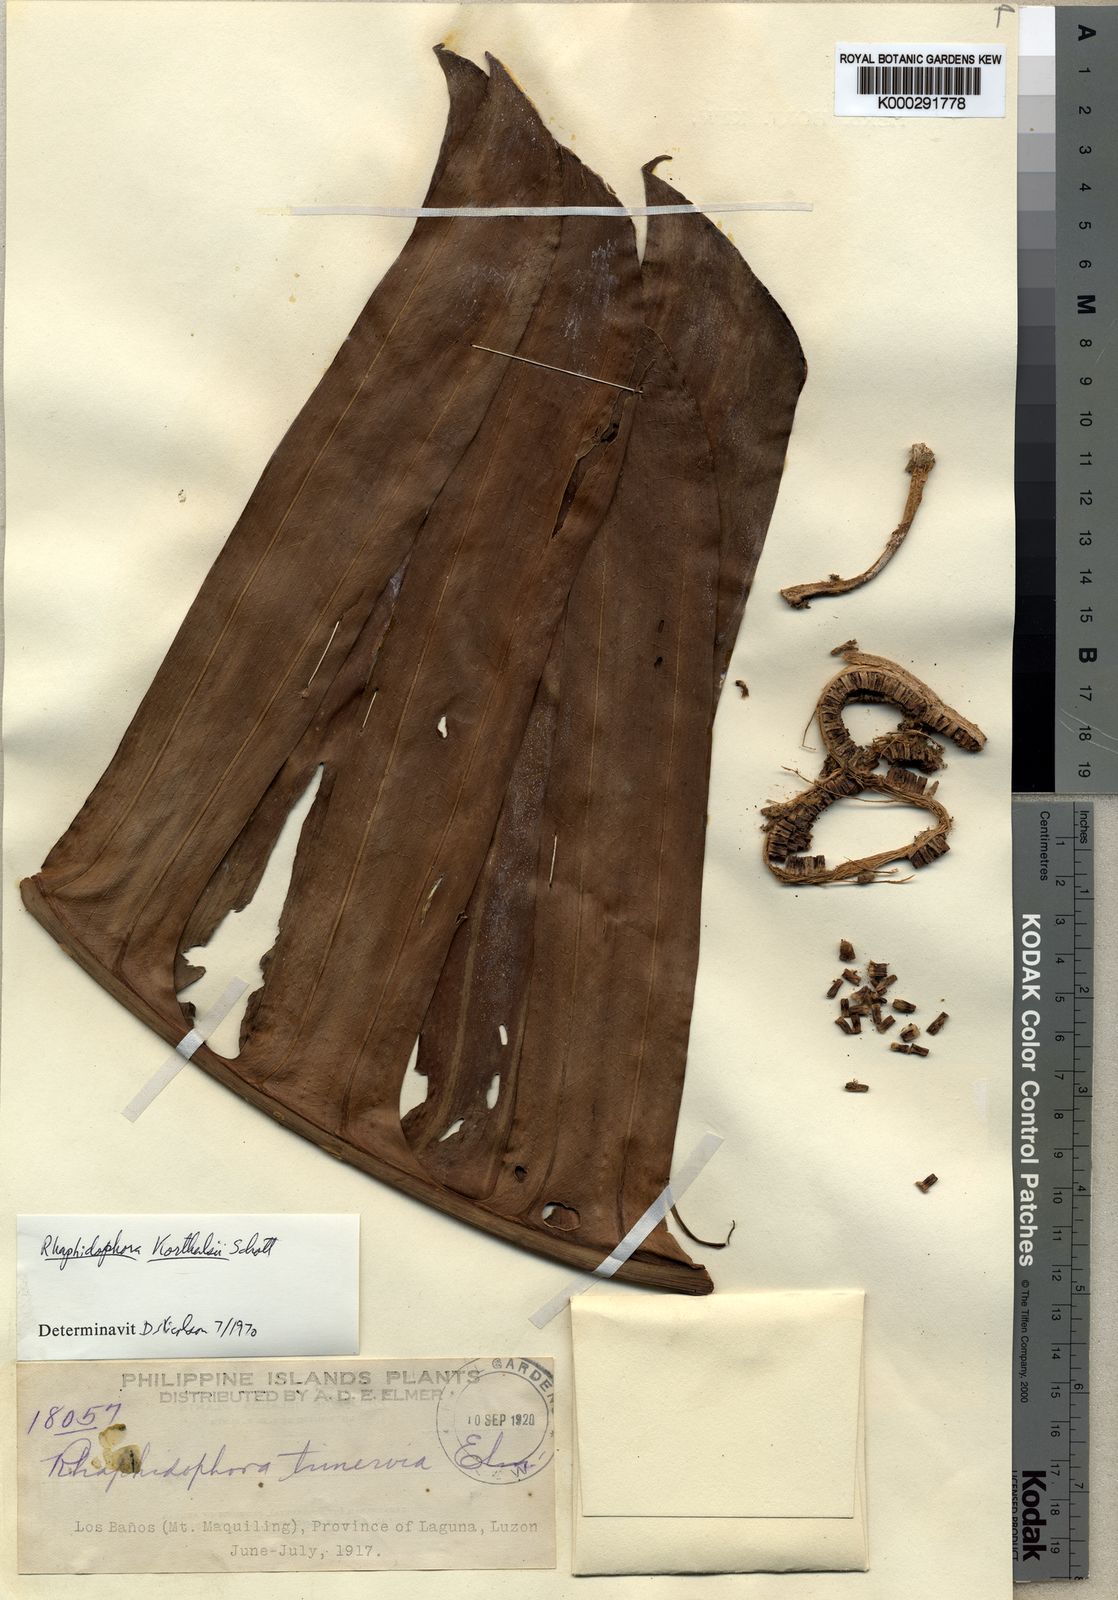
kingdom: Plantae
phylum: Tracheophyta
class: Liliopsida
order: Alismatales
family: Araceae
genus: Rhaphidophora
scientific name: Rhaphidophora korthalsii
